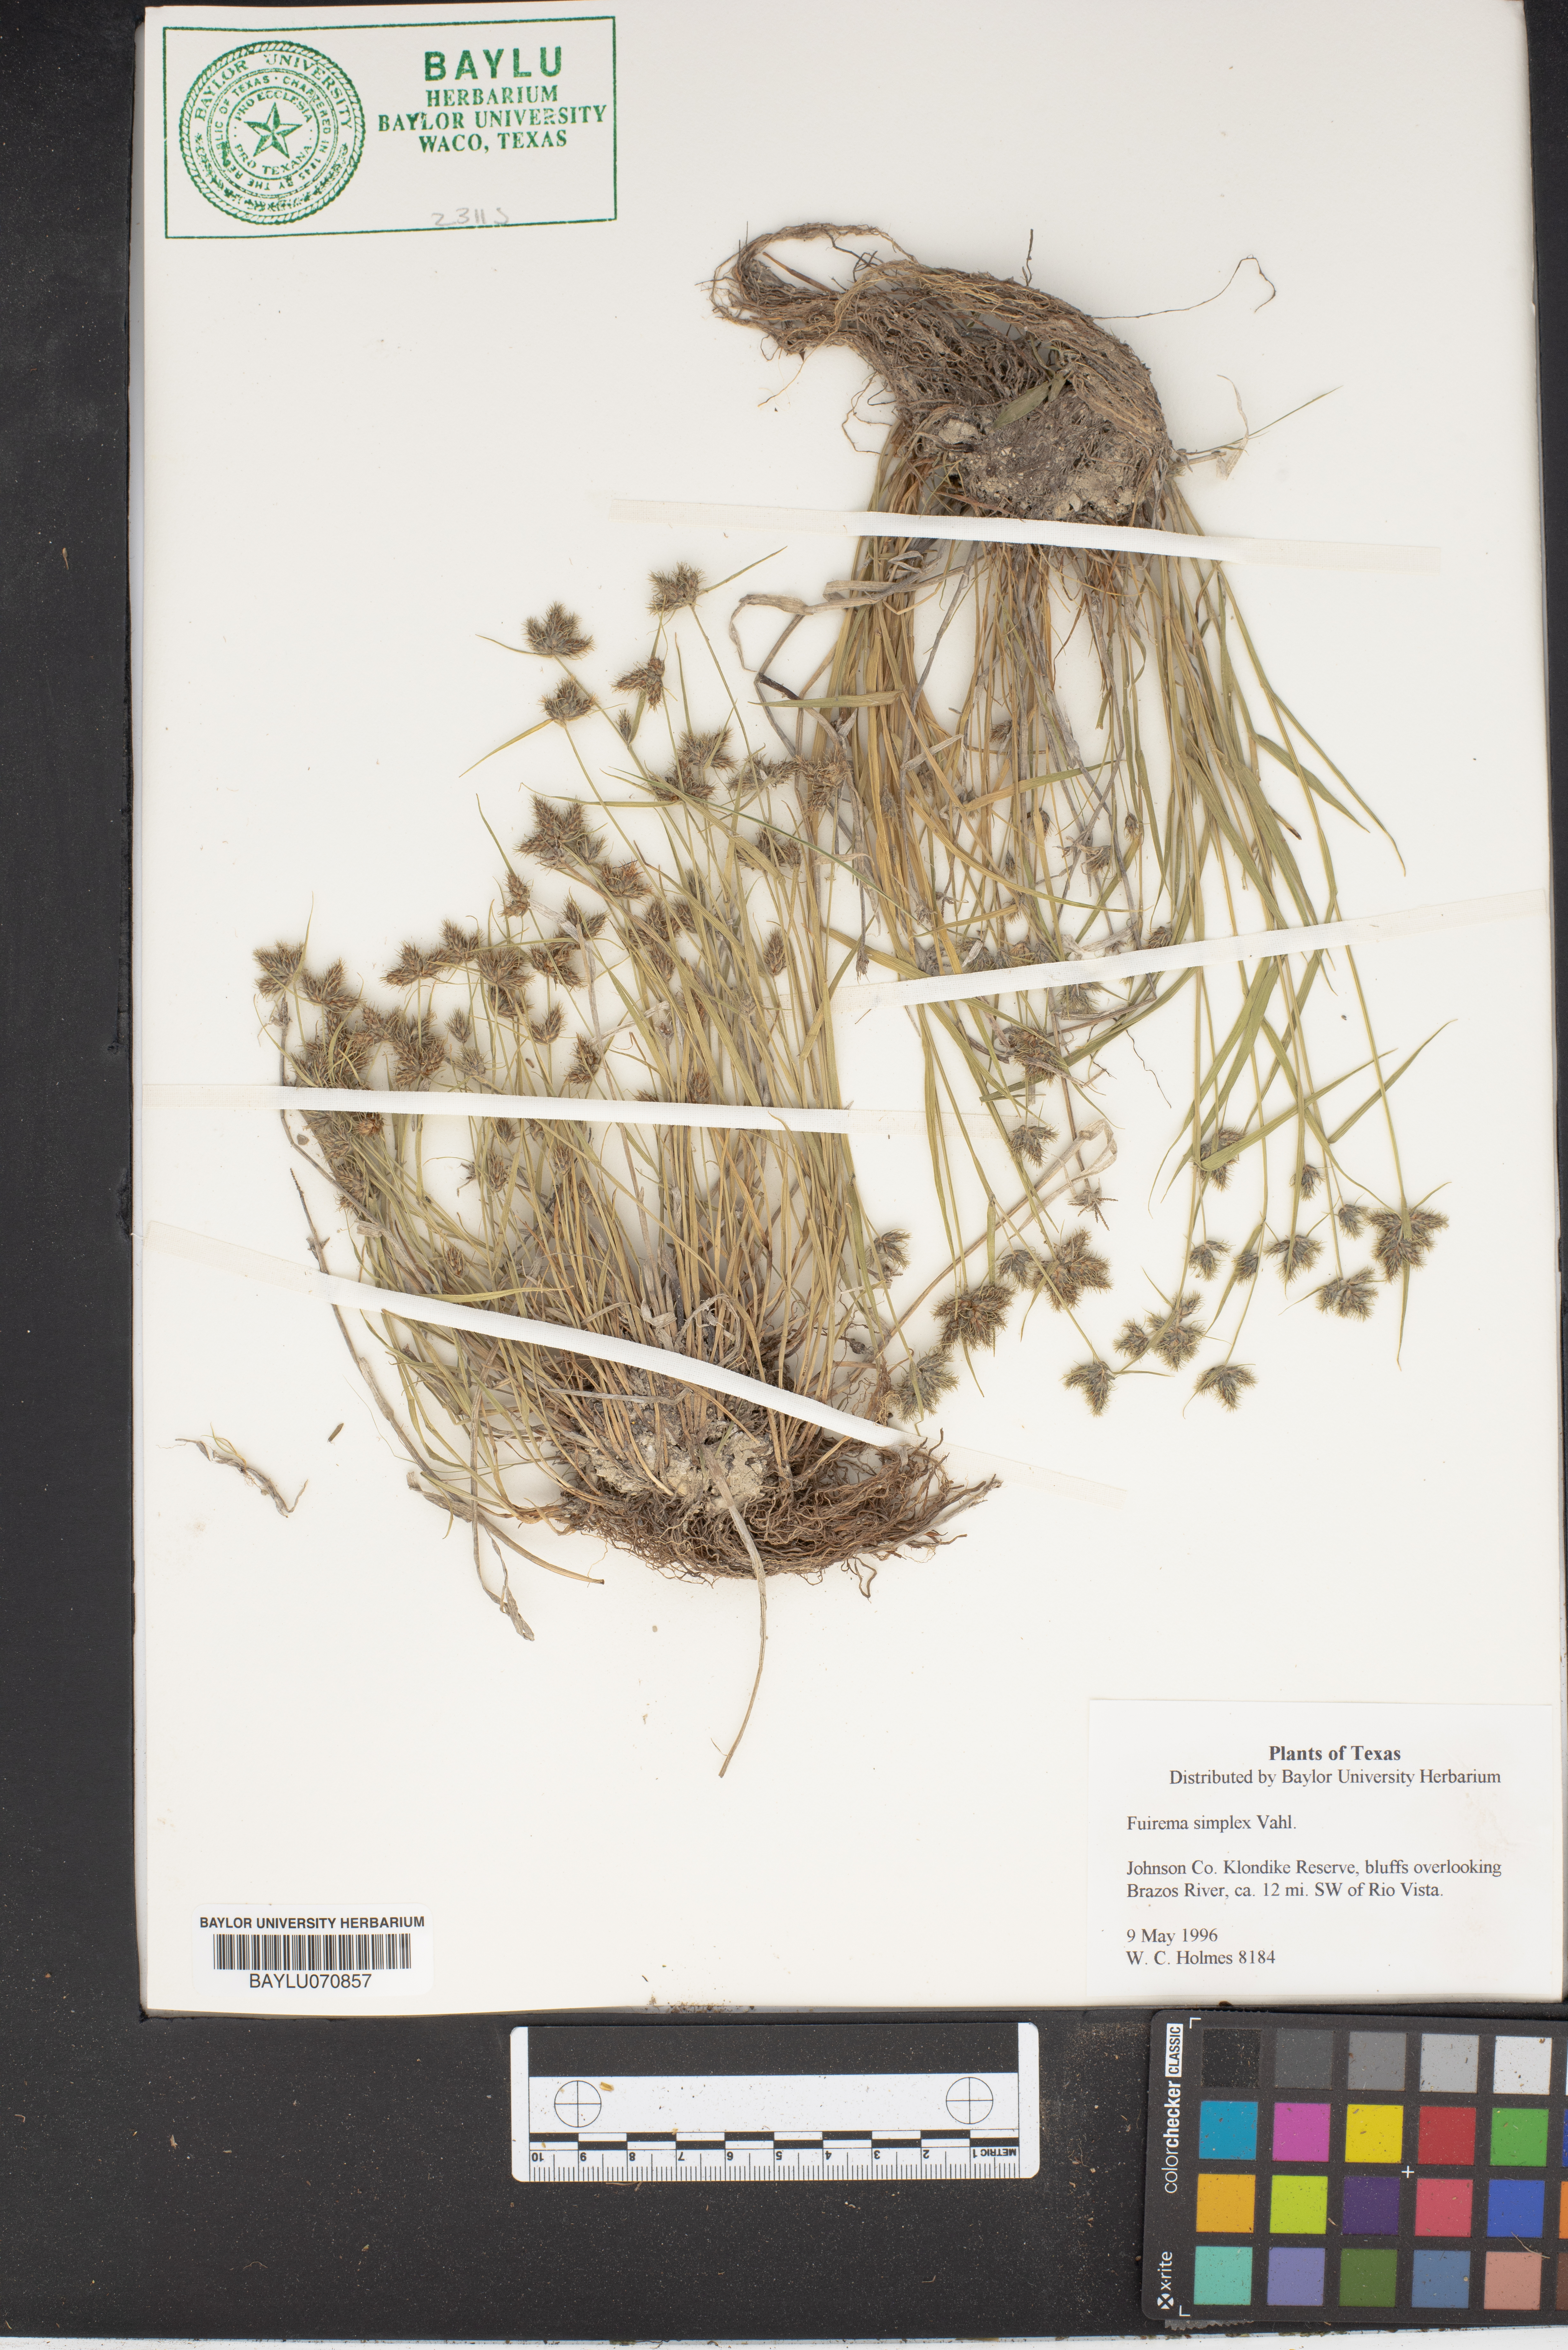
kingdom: Plantae
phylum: Tracheophyta
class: Liliopsida
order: Poales
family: Cyperaceae
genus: Fuirena
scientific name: Fuirena simplex
